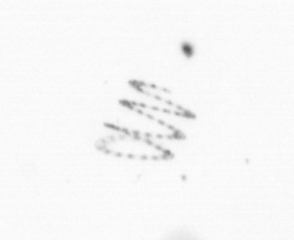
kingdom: Chromista
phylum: Ochrophyta
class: Bacillariophyceae
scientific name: Bacillariophyceae
